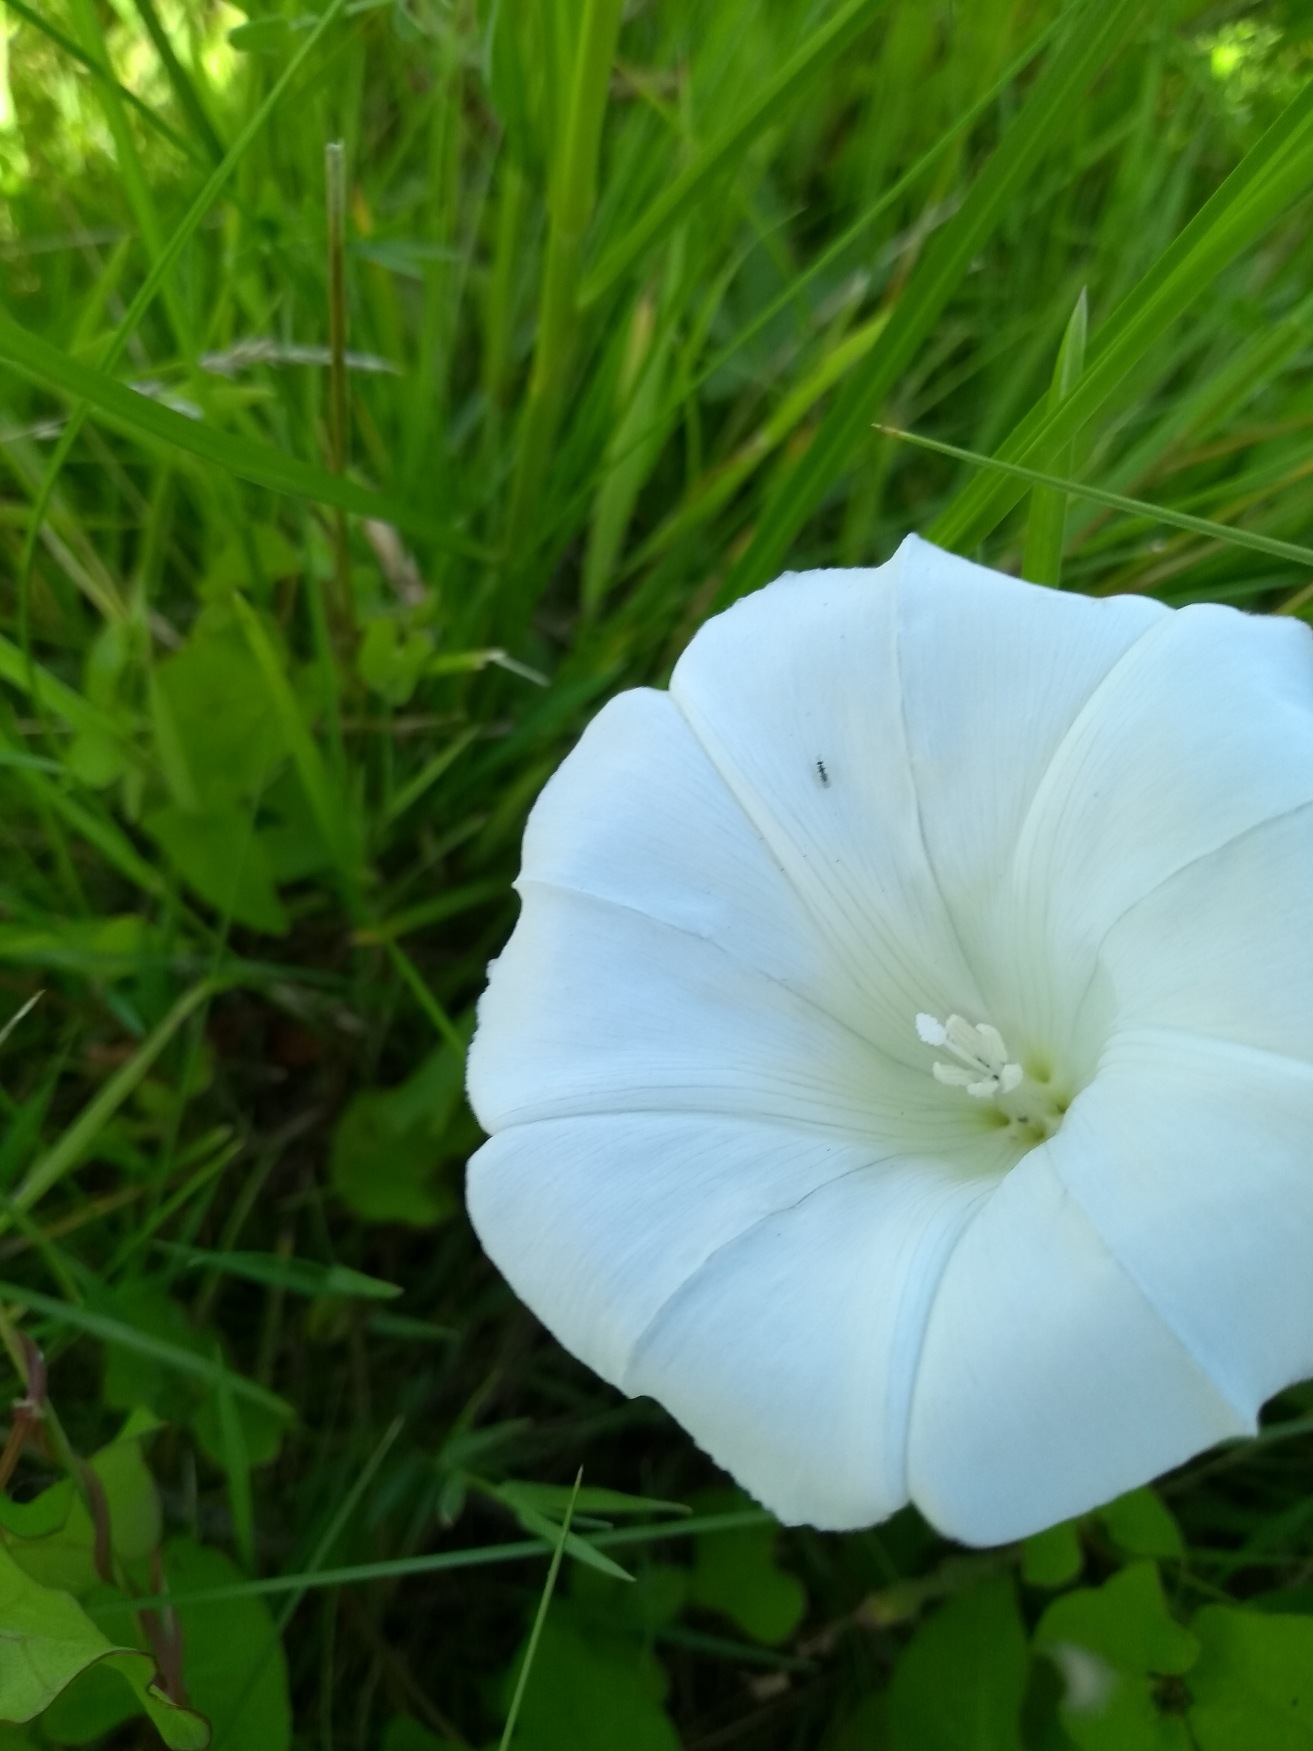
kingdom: Plantae
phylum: Tracheophyta
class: Magnoliopsida
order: Solanales
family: Convolvulaceae
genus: Calystegia
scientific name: Calystegia sepium
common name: Gærde-snerle
